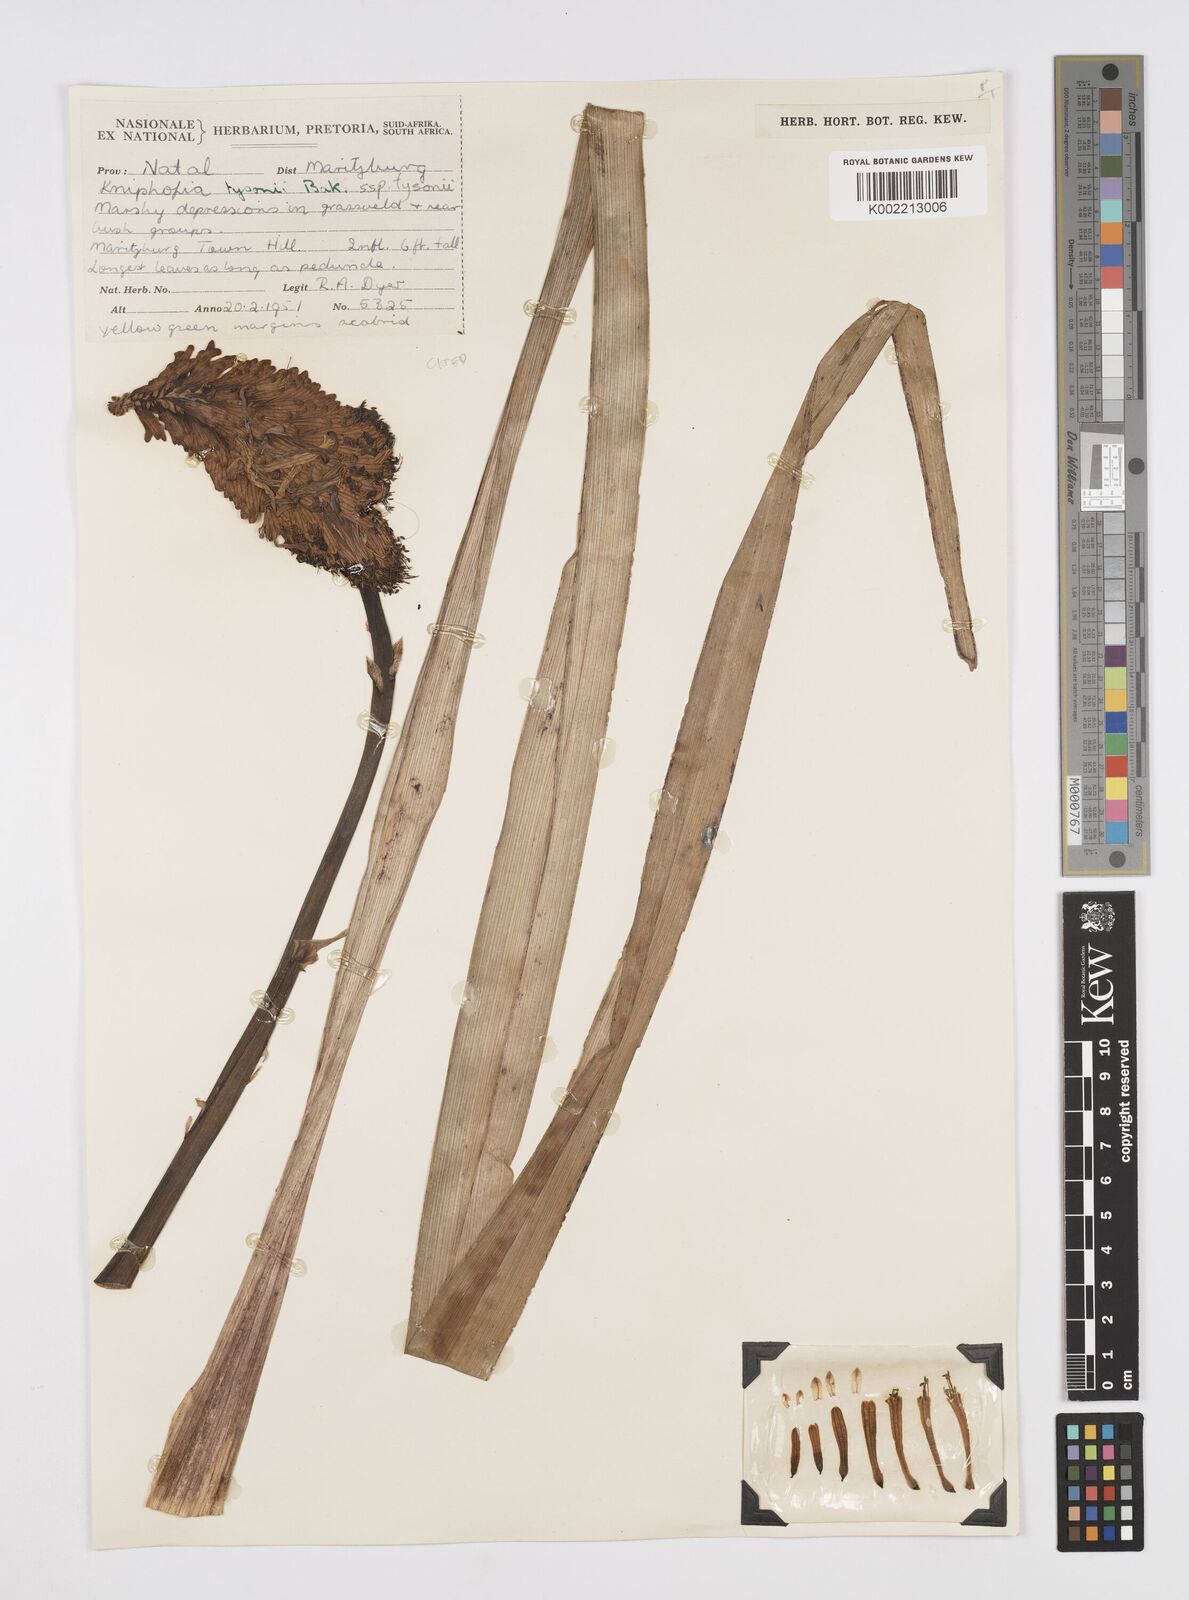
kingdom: Plantae
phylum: Tracheophyta
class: Liliopsida
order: Asparagales
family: Asphodelaceae
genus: Kniphofia
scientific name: Kniphofia tysonii
